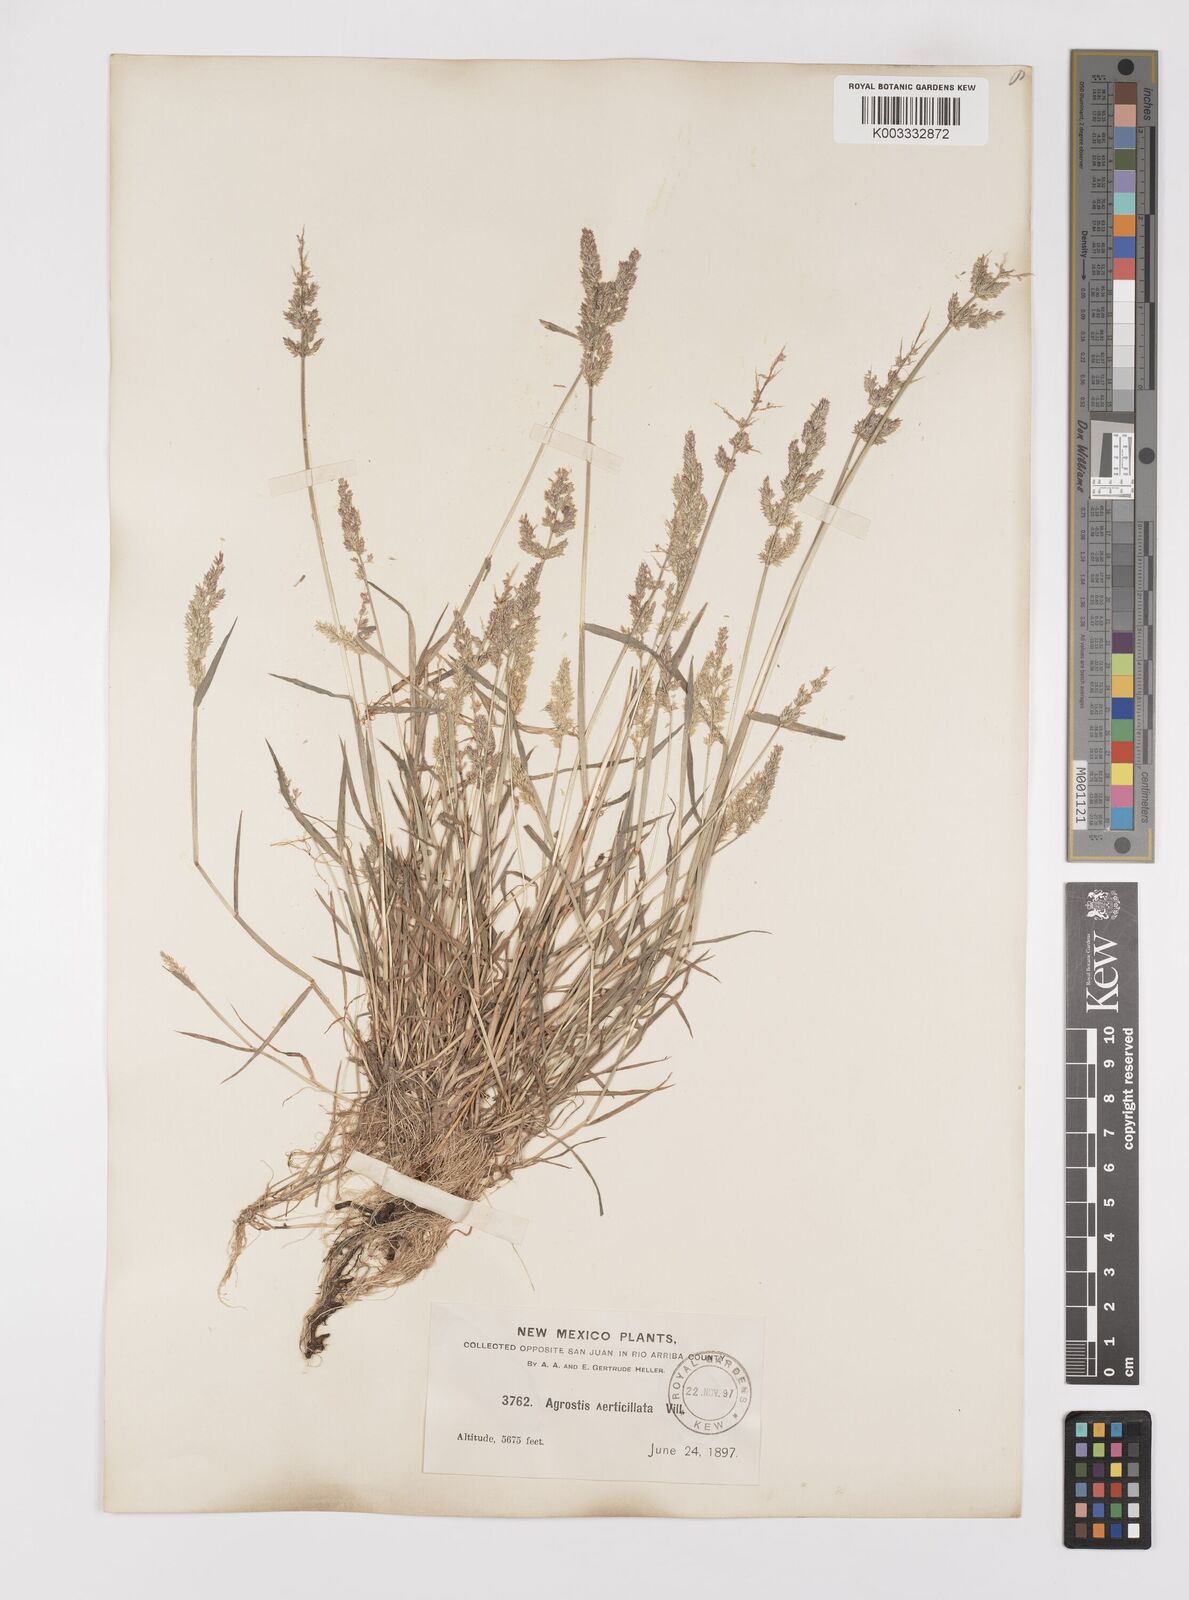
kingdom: Plantae
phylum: Tracheophyta
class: Liliopsida
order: Poales
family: Poaceae
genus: Polypogon
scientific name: Polypogon viridis
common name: Water bent
